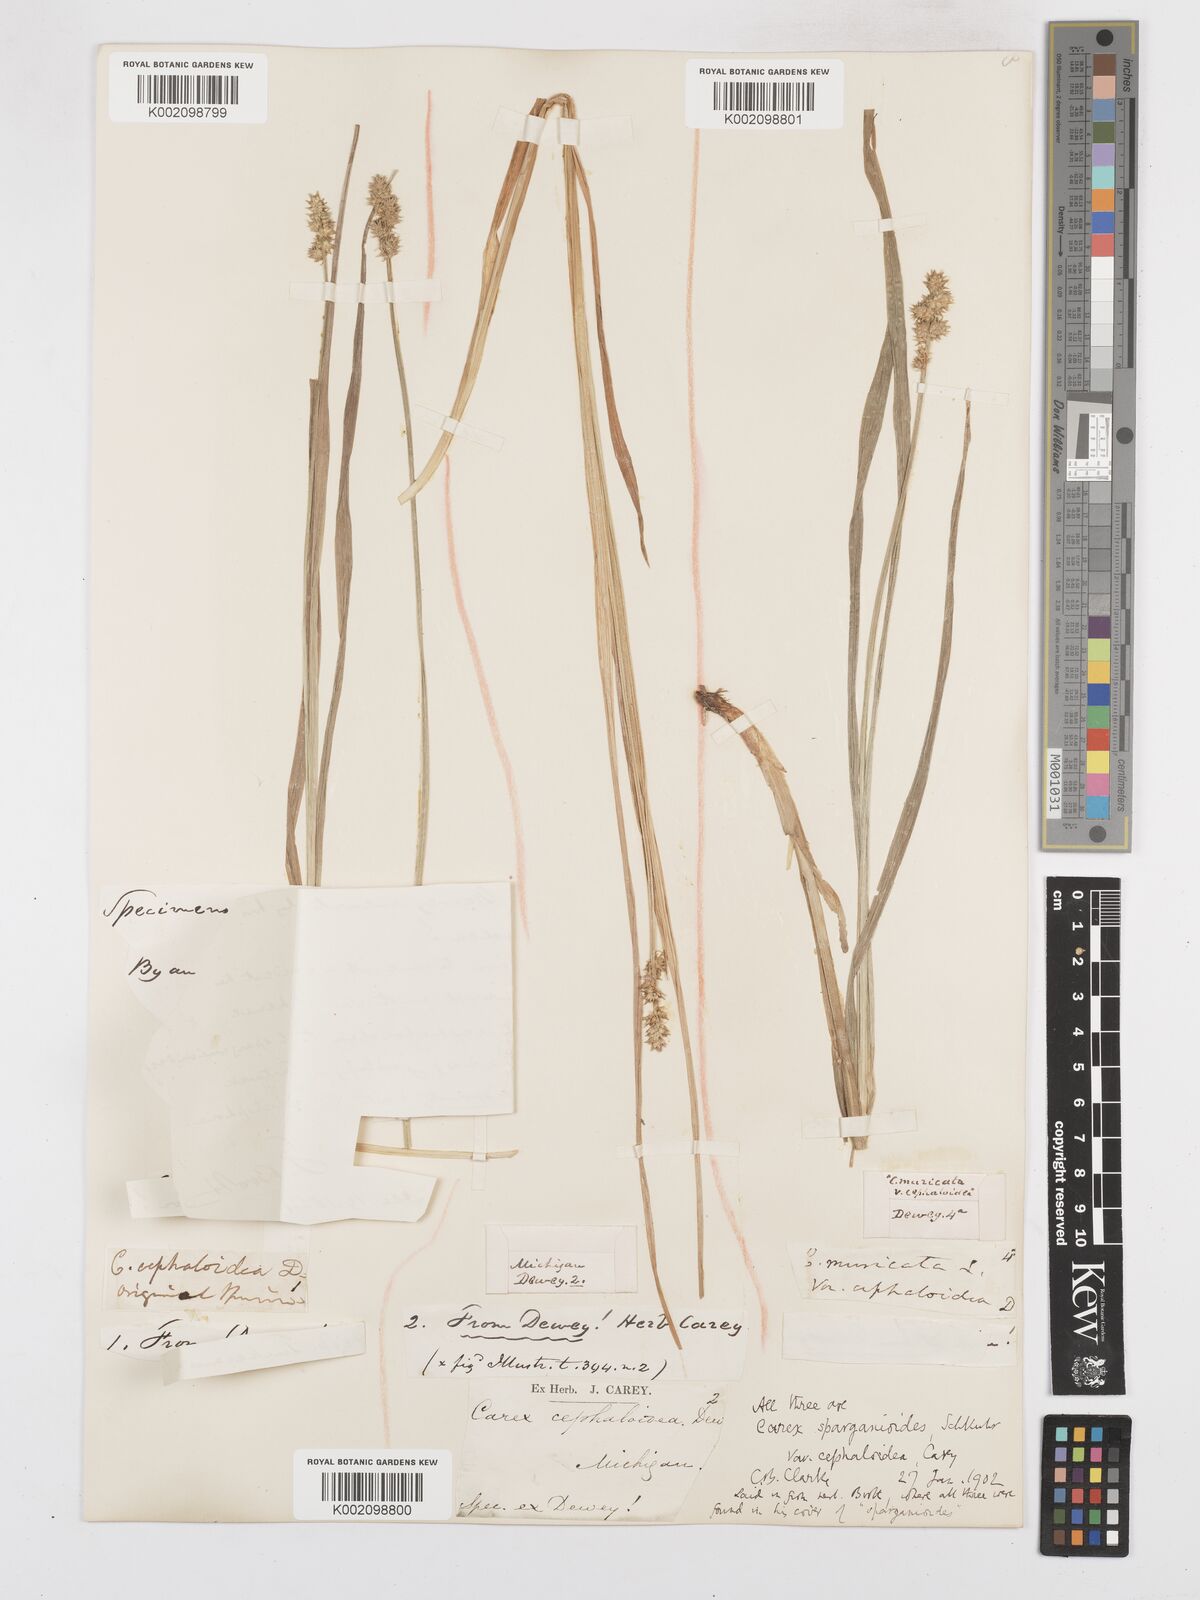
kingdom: Plantae
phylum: Tracheophyta
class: Liliopsida
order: Poales
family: Cyperaceae
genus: Carex
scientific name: Carex sparganioides
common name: Burreed sedge
